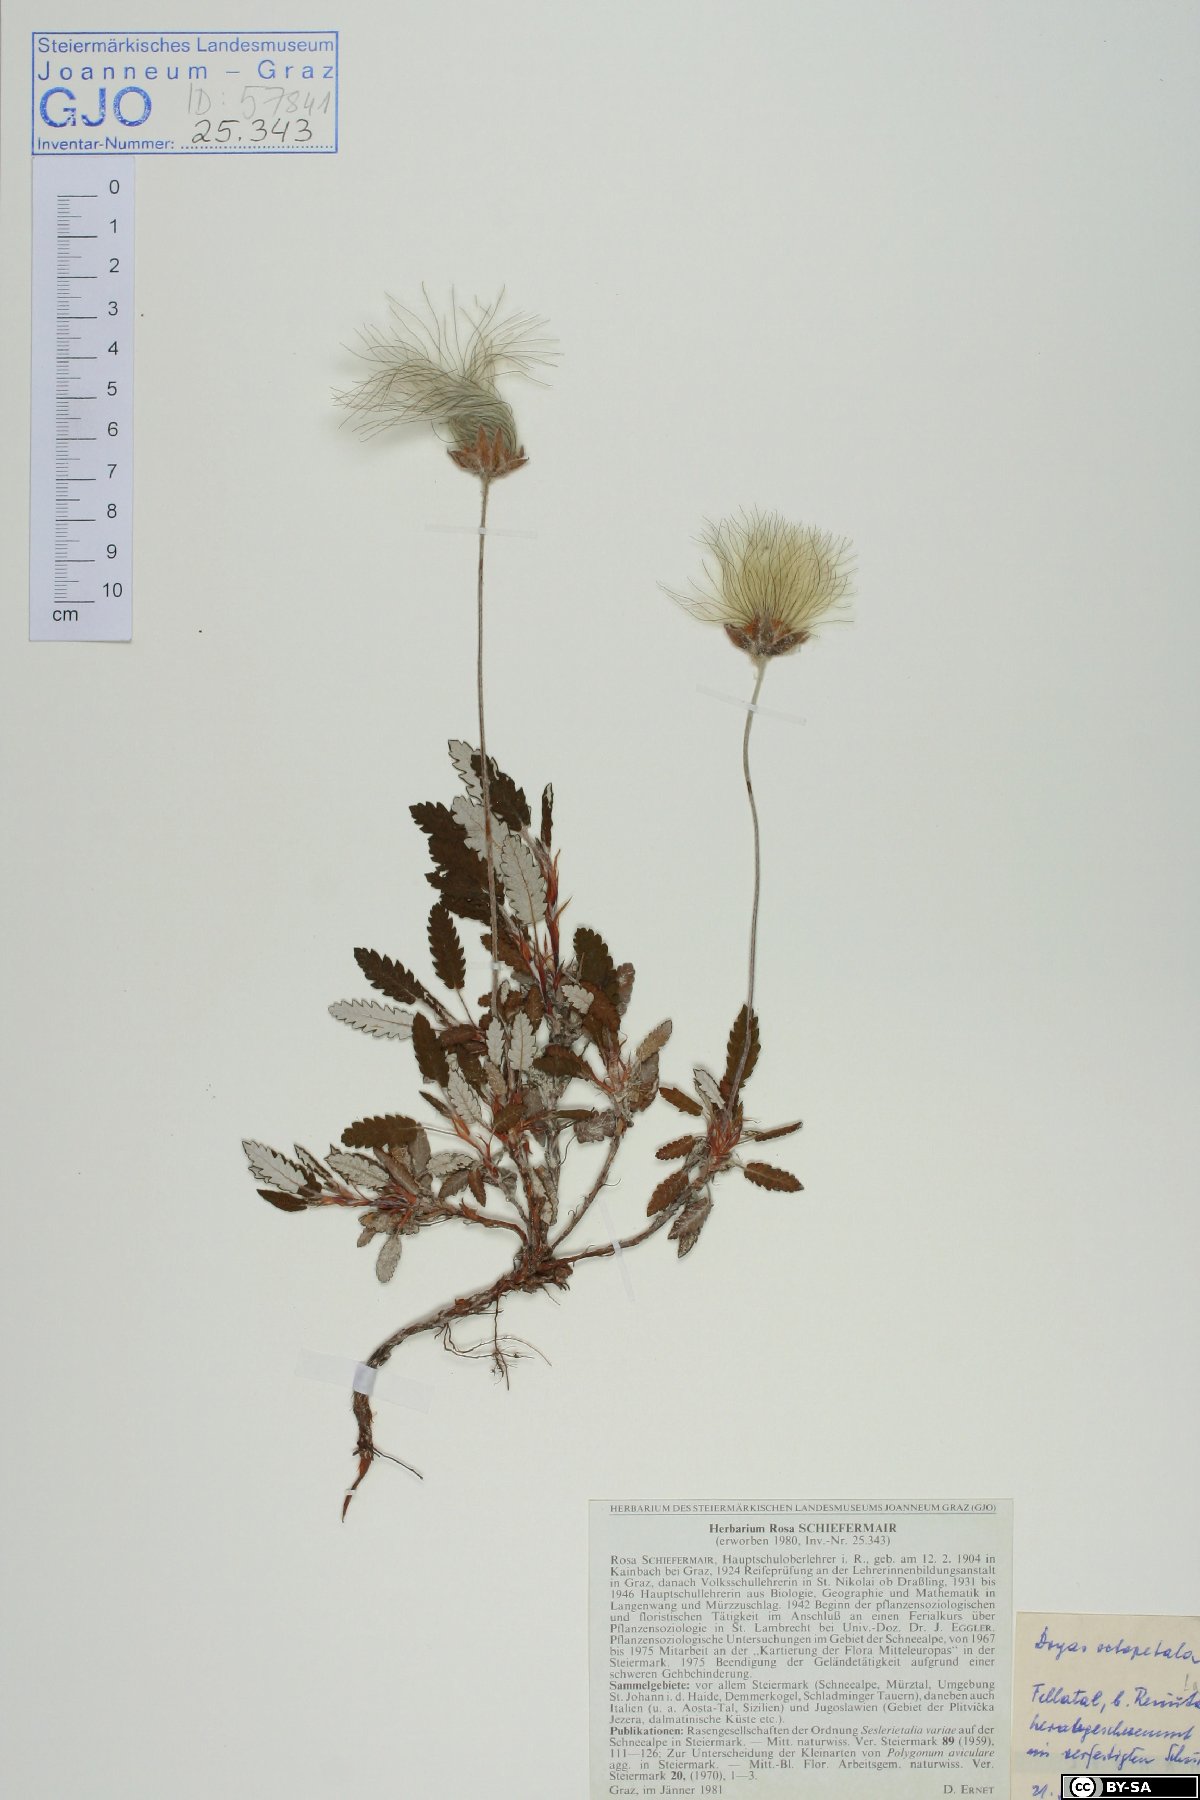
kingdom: Plantae
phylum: Tracheophyta
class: Magnoliopsida
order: Rosales
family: Rosaceae
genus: Dryas
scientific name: Dryas octopetala
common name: Eight-petal mountain-avens
